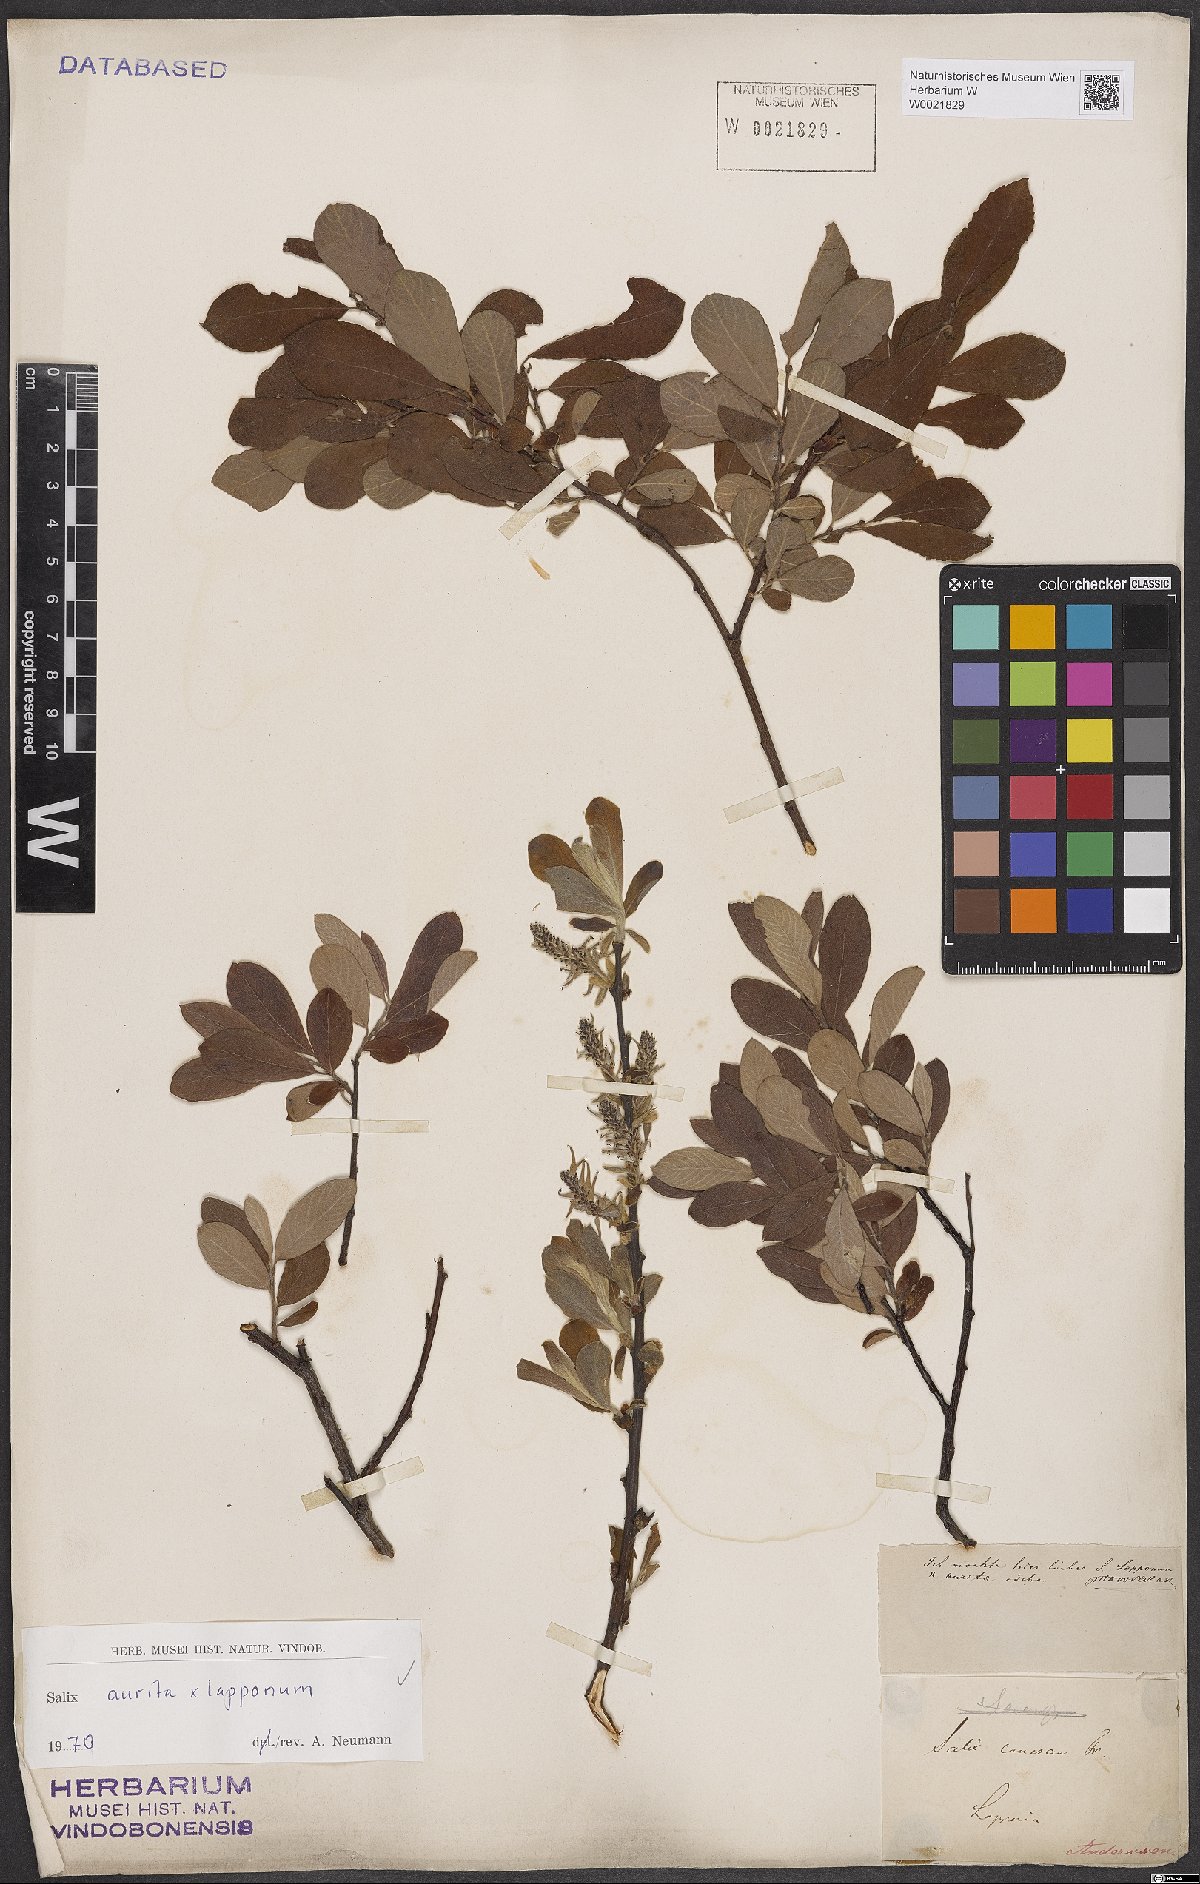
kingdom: Plantae
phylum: Tracheophyta
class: Magnoliopsida
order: Malpighiales
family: Salicaceae
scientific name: Salicaceae
